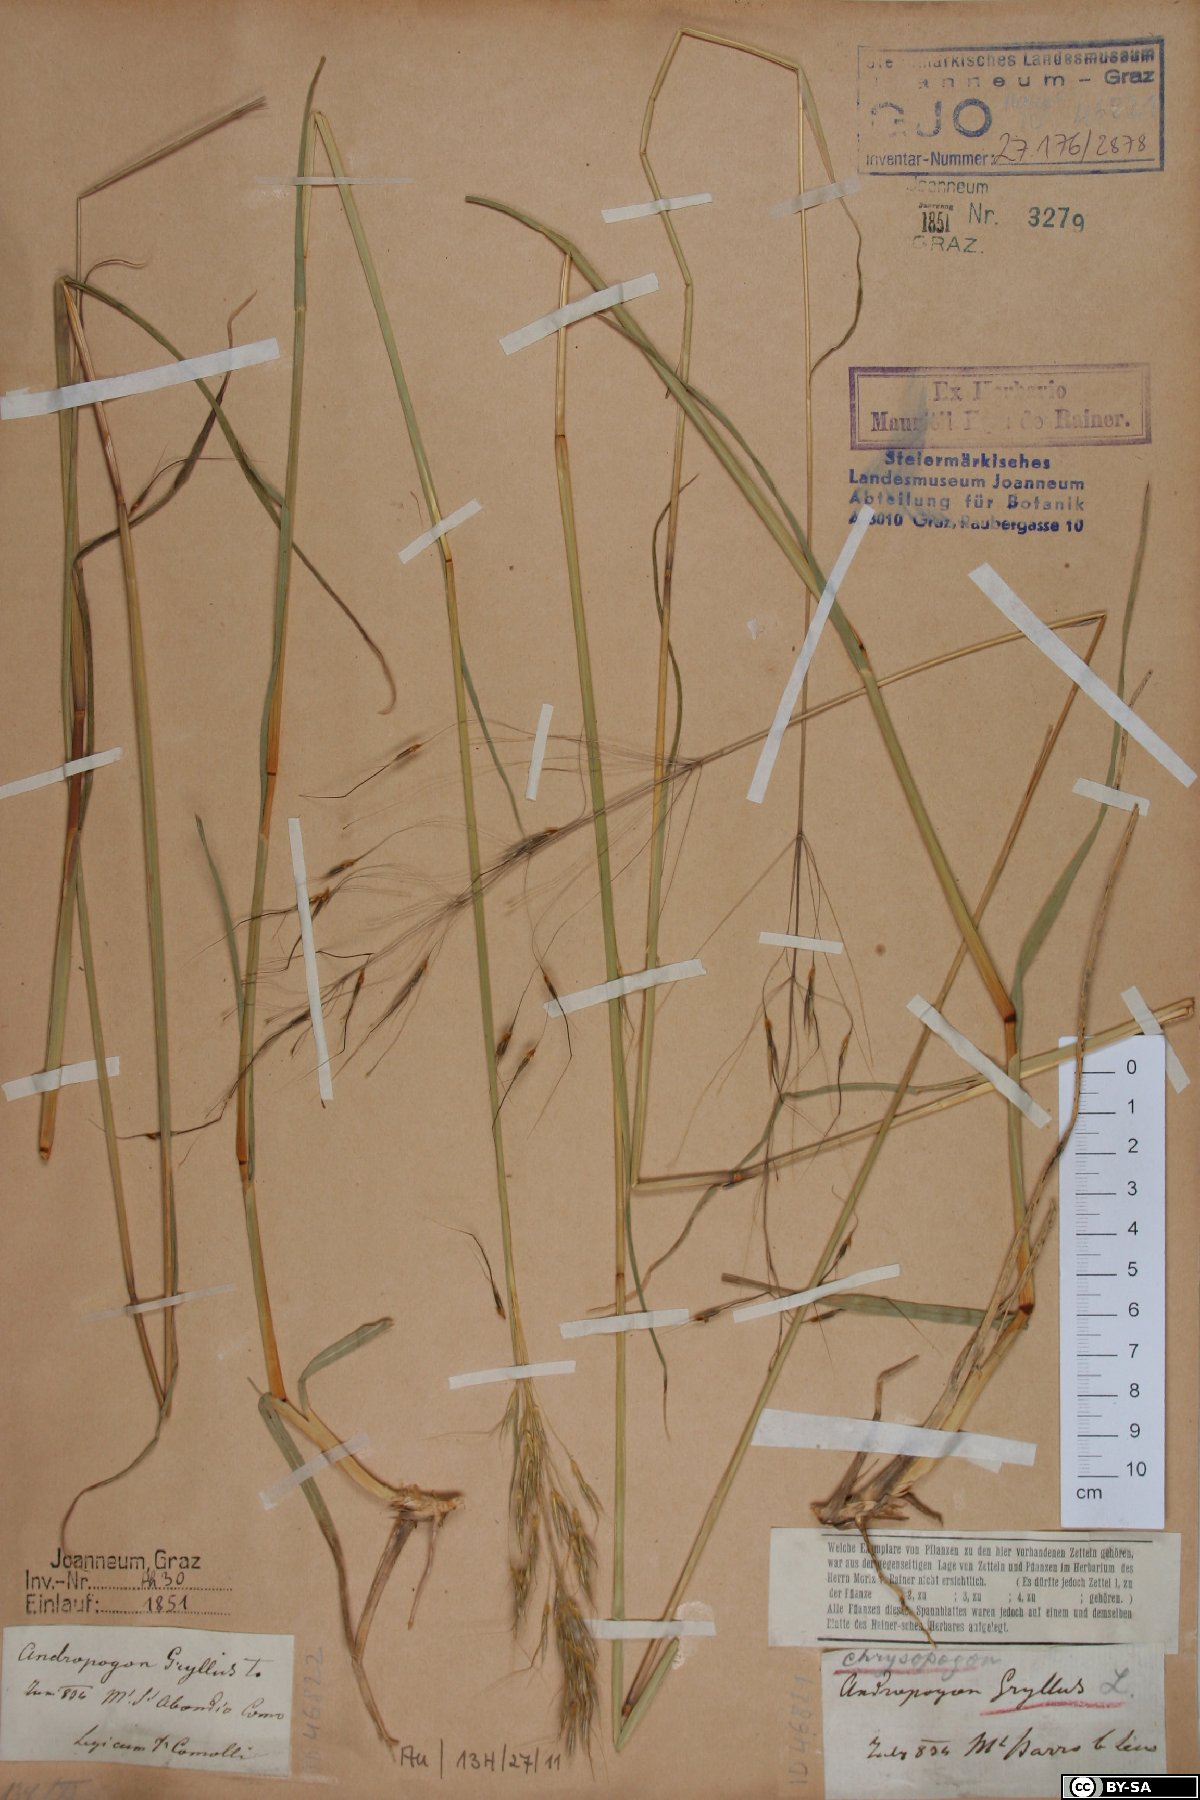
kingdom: Plantae
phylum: Tracheophyta
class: Liliopsida
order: Poales
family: Poaceae
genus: Chrysopogon
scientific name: Chrysopogon gryllus
